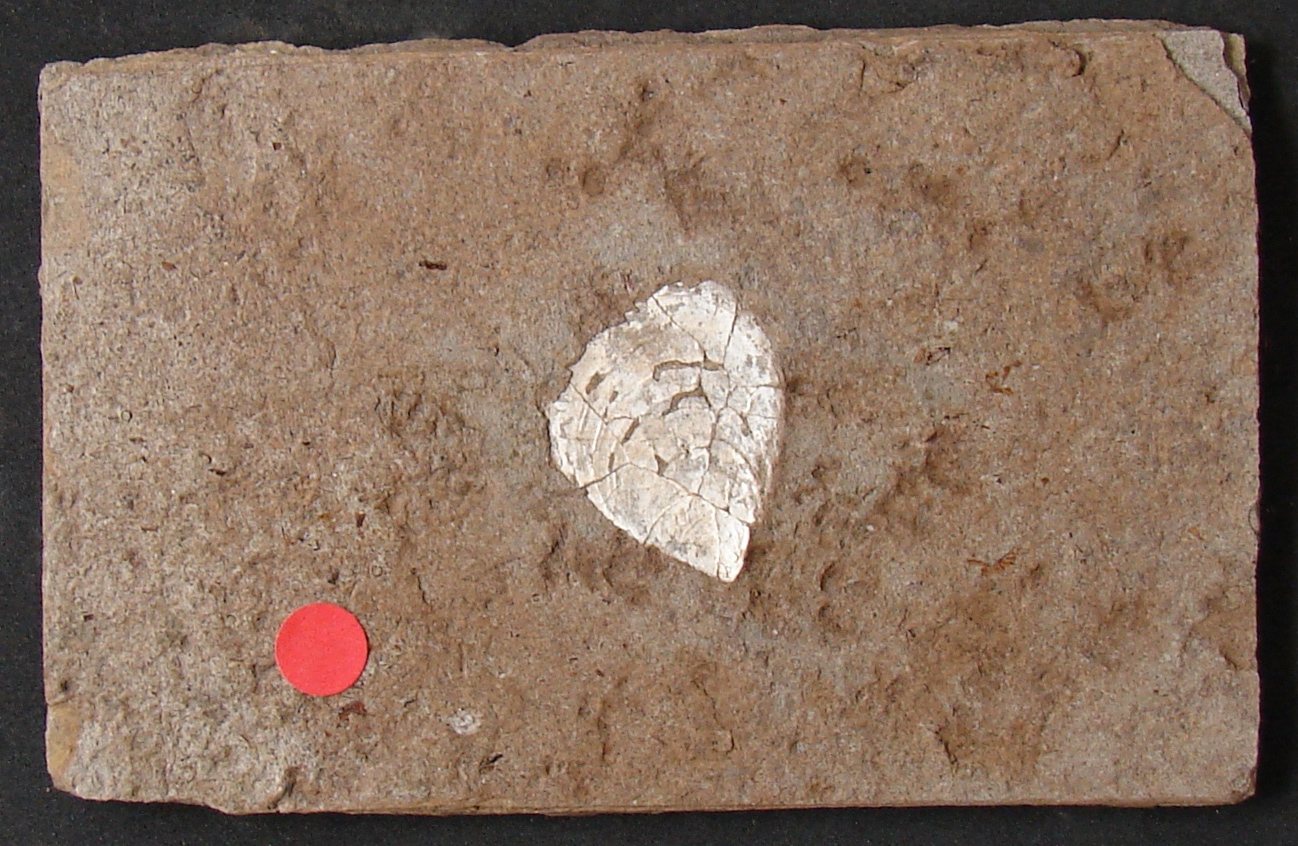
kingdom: Animalia
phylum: Mollusca
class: Bivalvia
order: Myalinida
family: Inoceramidae
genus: Inoceramus
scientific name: Inoceramus dubius
